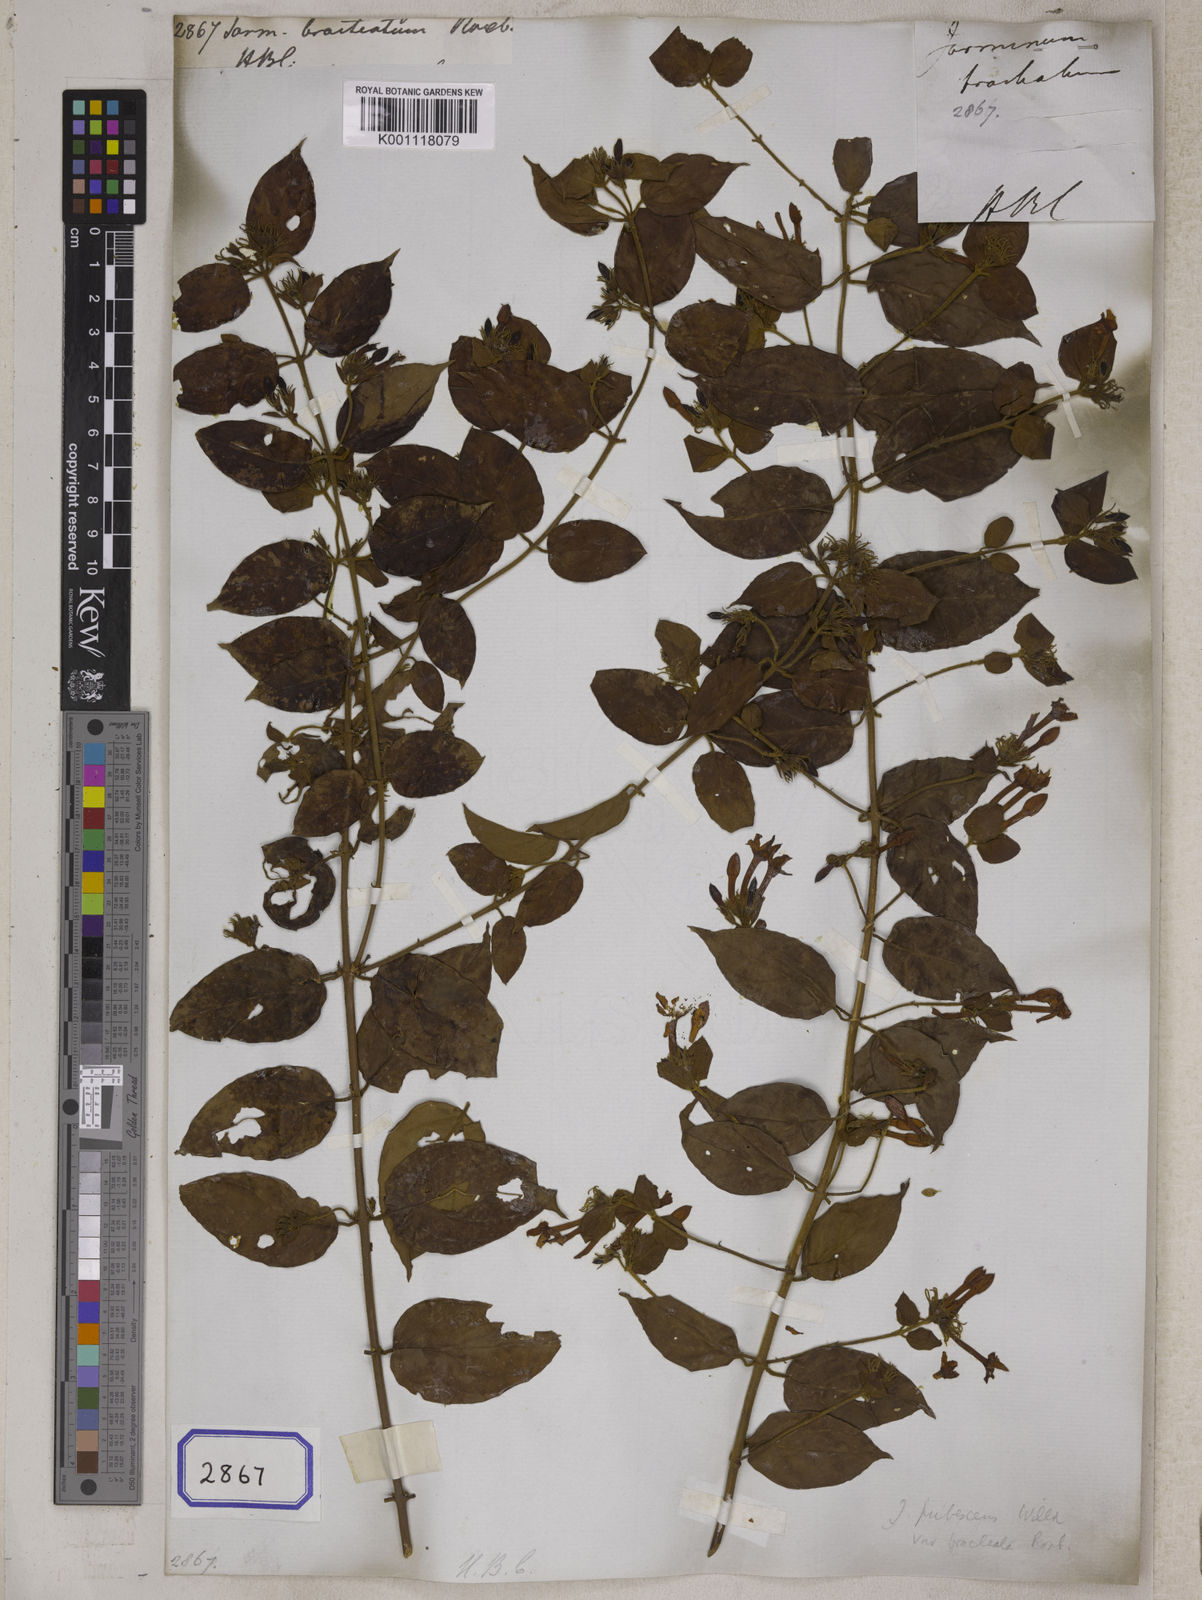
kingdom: Plantae
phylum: Tracheophyta
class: Magnoliopsida
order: Lamiales
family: Oleaceae
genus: Jasminum
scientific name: Jasminum elongatum
